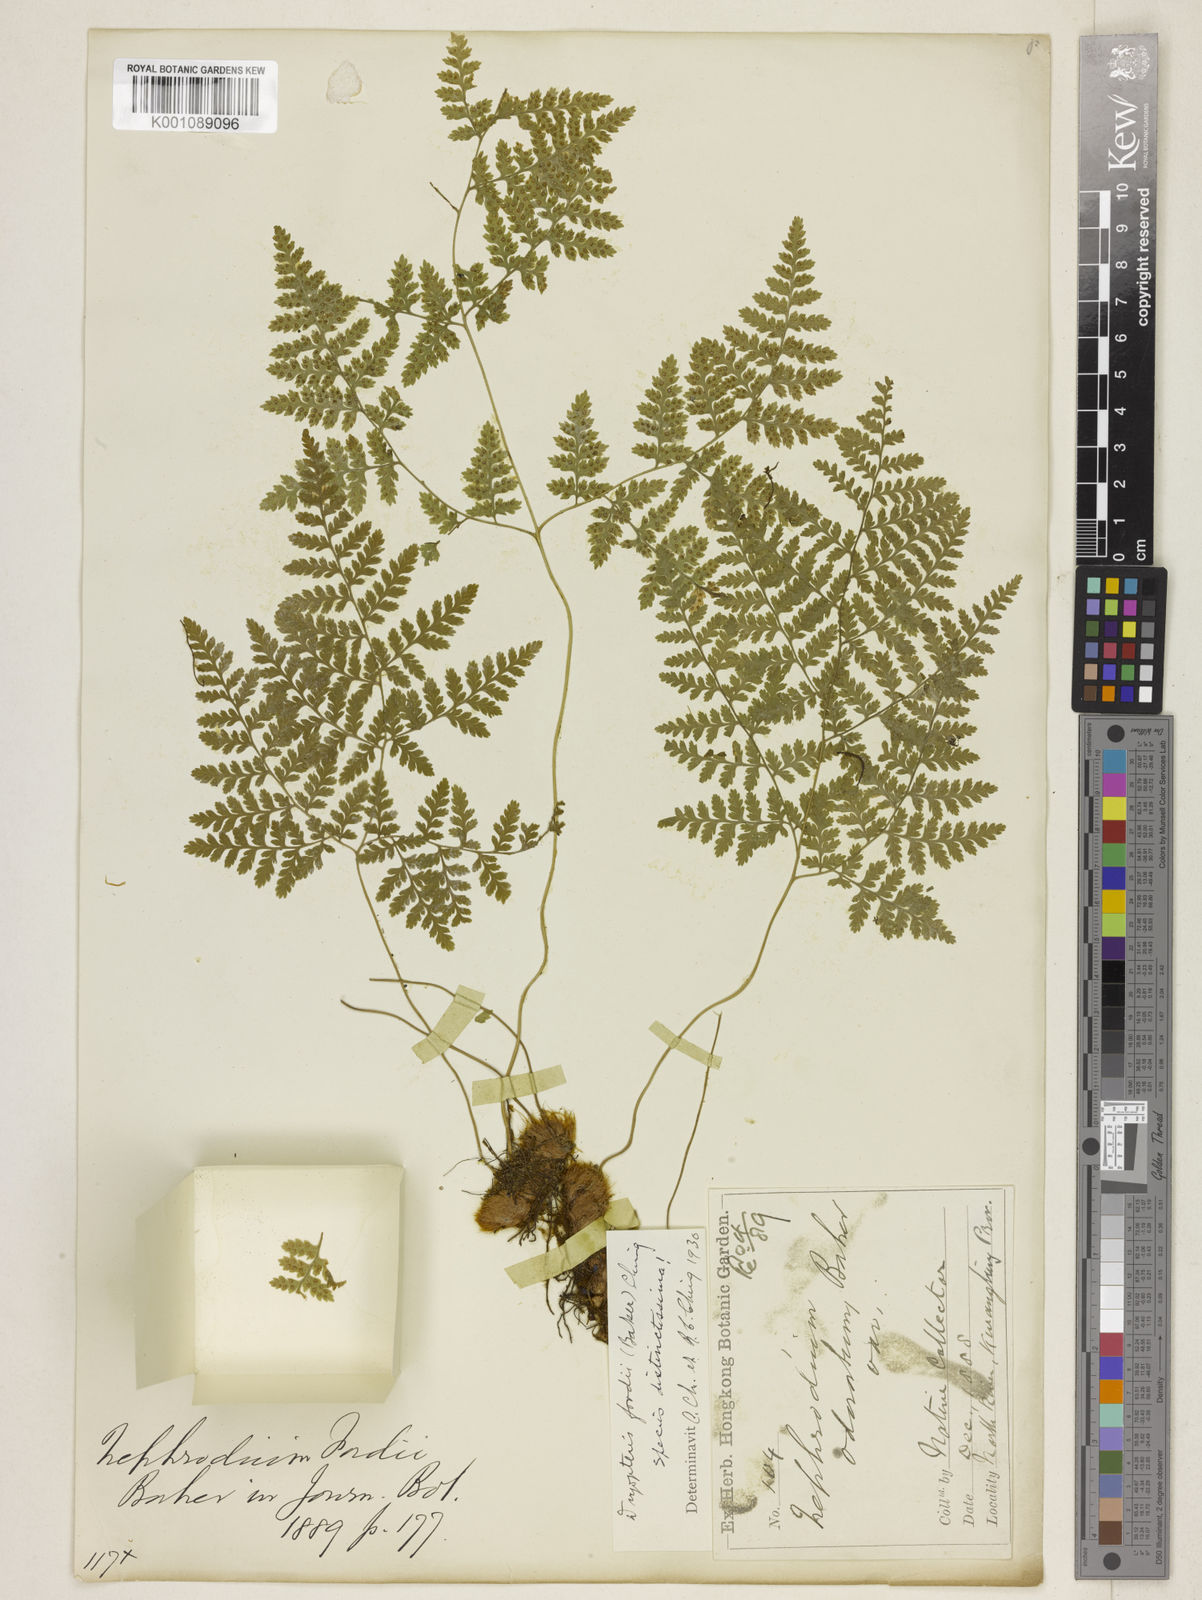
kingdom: Plantae
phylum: Tracheophyta
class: Polypodiopsida
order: Polypodiales
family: Hypodematiaceae
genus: Hypodematium
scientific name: Hypodematium fordii
